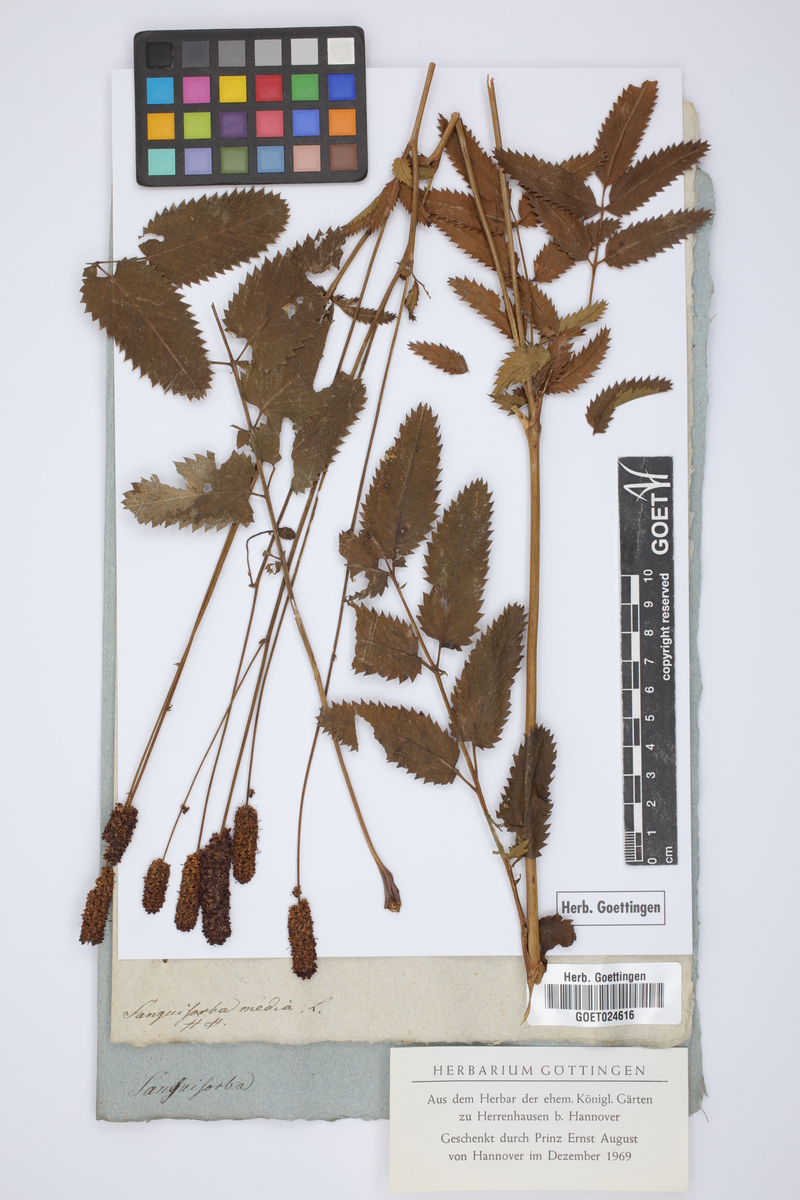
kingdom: Plantae
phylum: Tracheophyta
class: Magnoliopsida
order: Rosales
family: Rosaceae
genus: Sanguisorba
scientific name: Sanguisorba officinalis
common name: Great burnet
